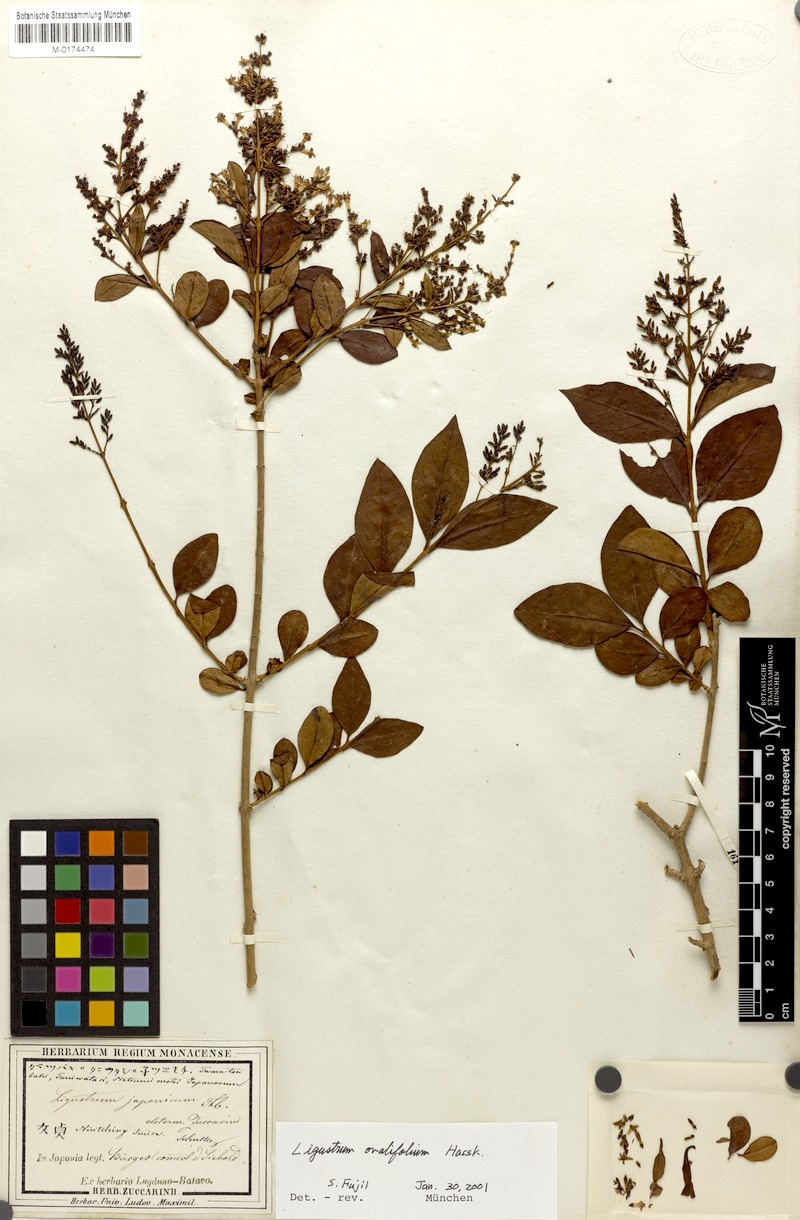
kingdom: Plantae
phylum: Tracheophyta
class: Magnoliopsida
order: Lamiales
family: Oleaceae
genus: Ligustrum
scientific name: Ligustrum ovalifolium
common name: California privet
